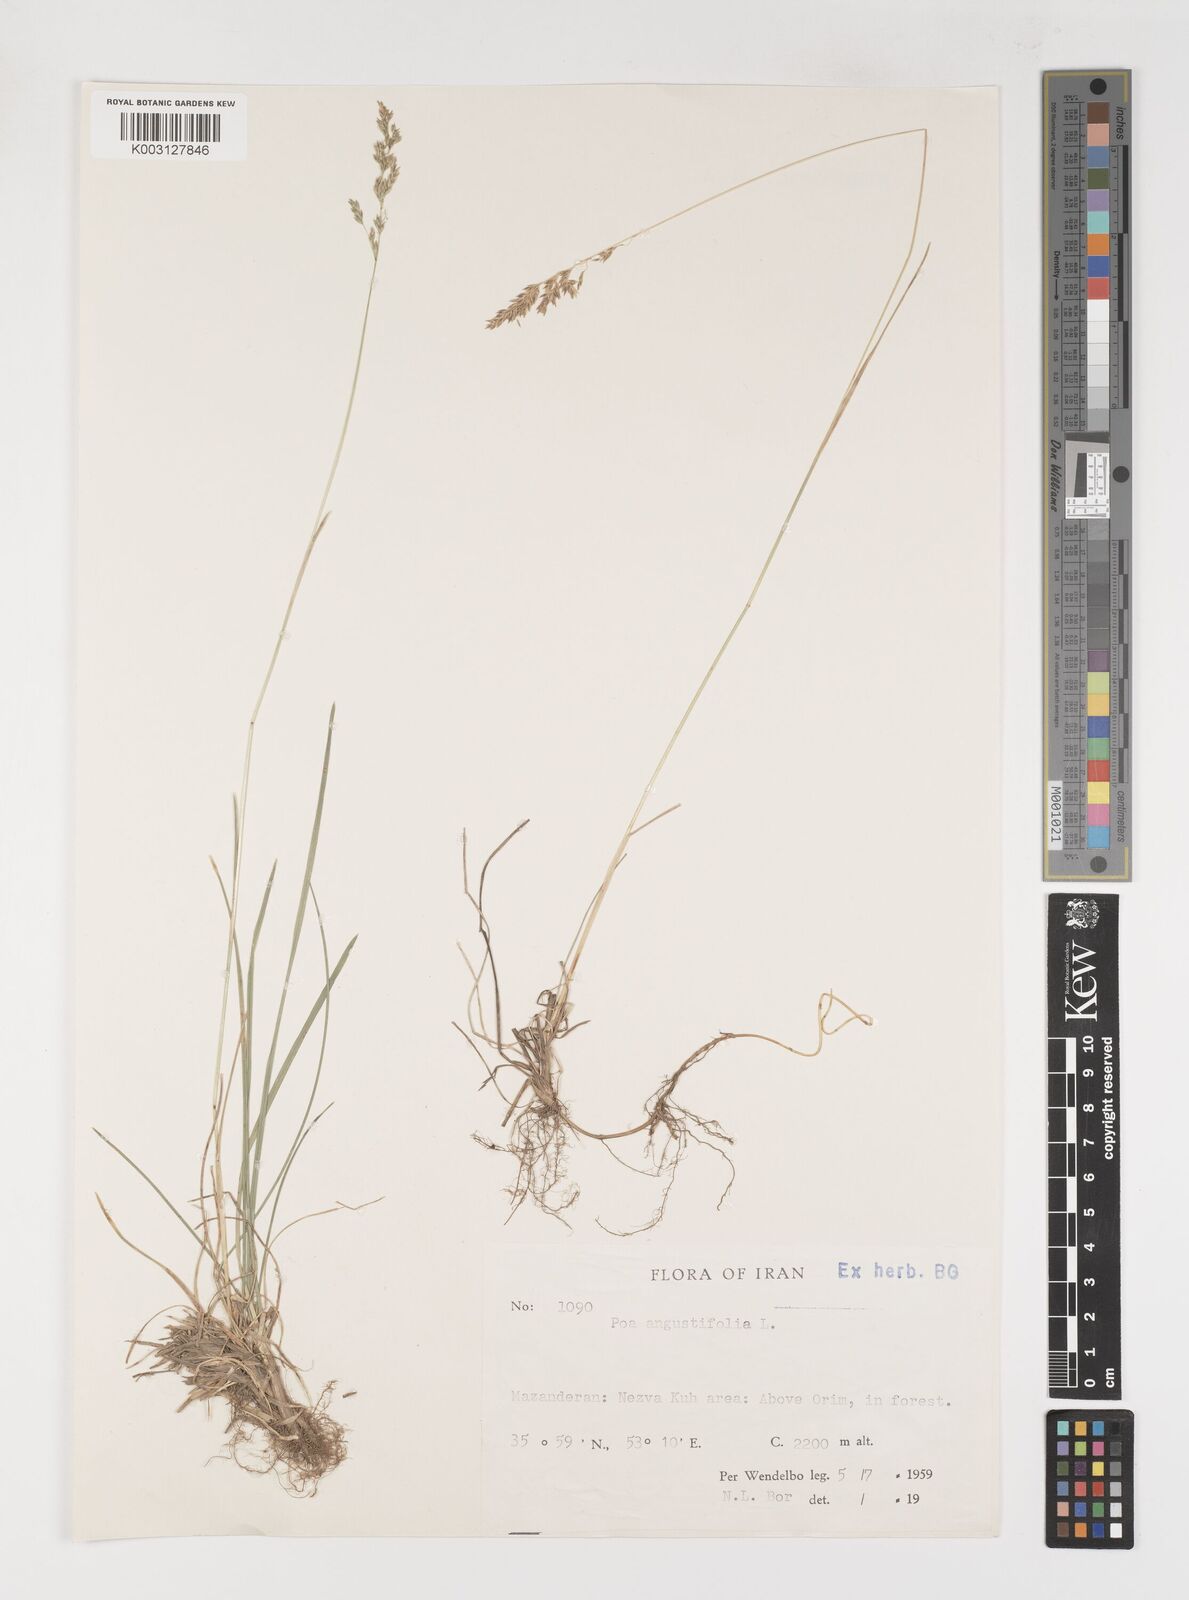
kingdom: Plantae
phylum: Tracheophyta
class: Liliopsida
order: Poales
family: Poaceae
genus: Poa
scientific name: Poa angustifolia
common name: Narrow-leaved meadow-grass
